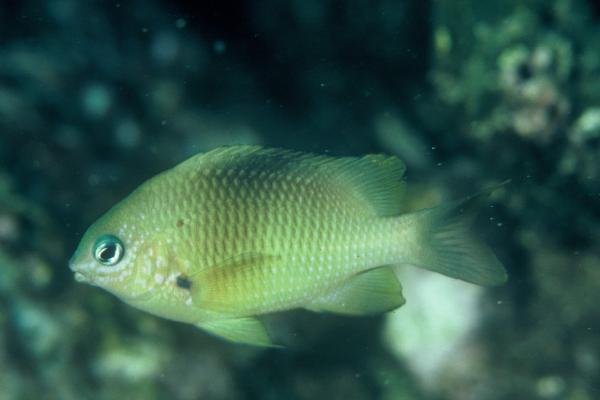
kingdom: Animalia
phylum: Chordata
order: Perciformes
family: Pomacentridae
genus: Plectroglyphidodon
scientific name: Plectroglyphidodon randalli
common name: Mauritian damsel
